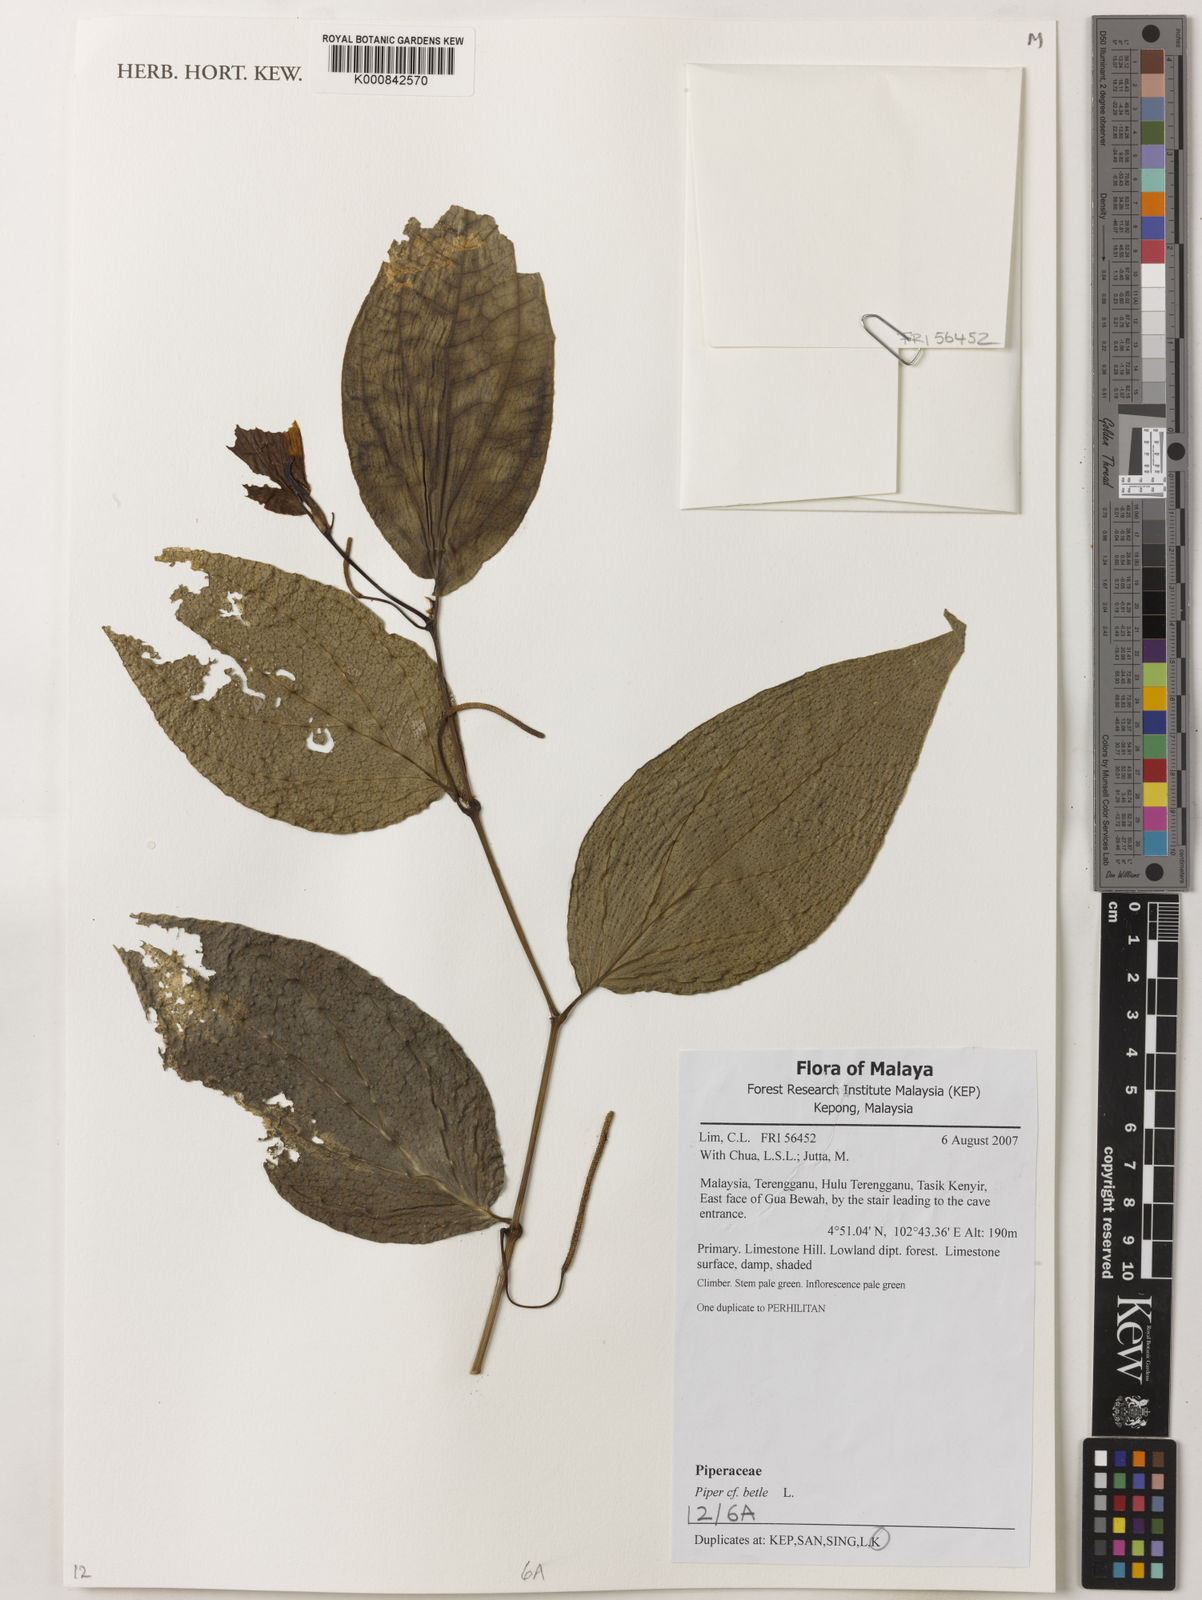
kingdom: Plantae
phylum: Tracheophyta
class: Magnoliopsida
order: Piperales
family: Piperaceae
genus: Piper
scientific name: Piper betle
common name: Betel pepper
